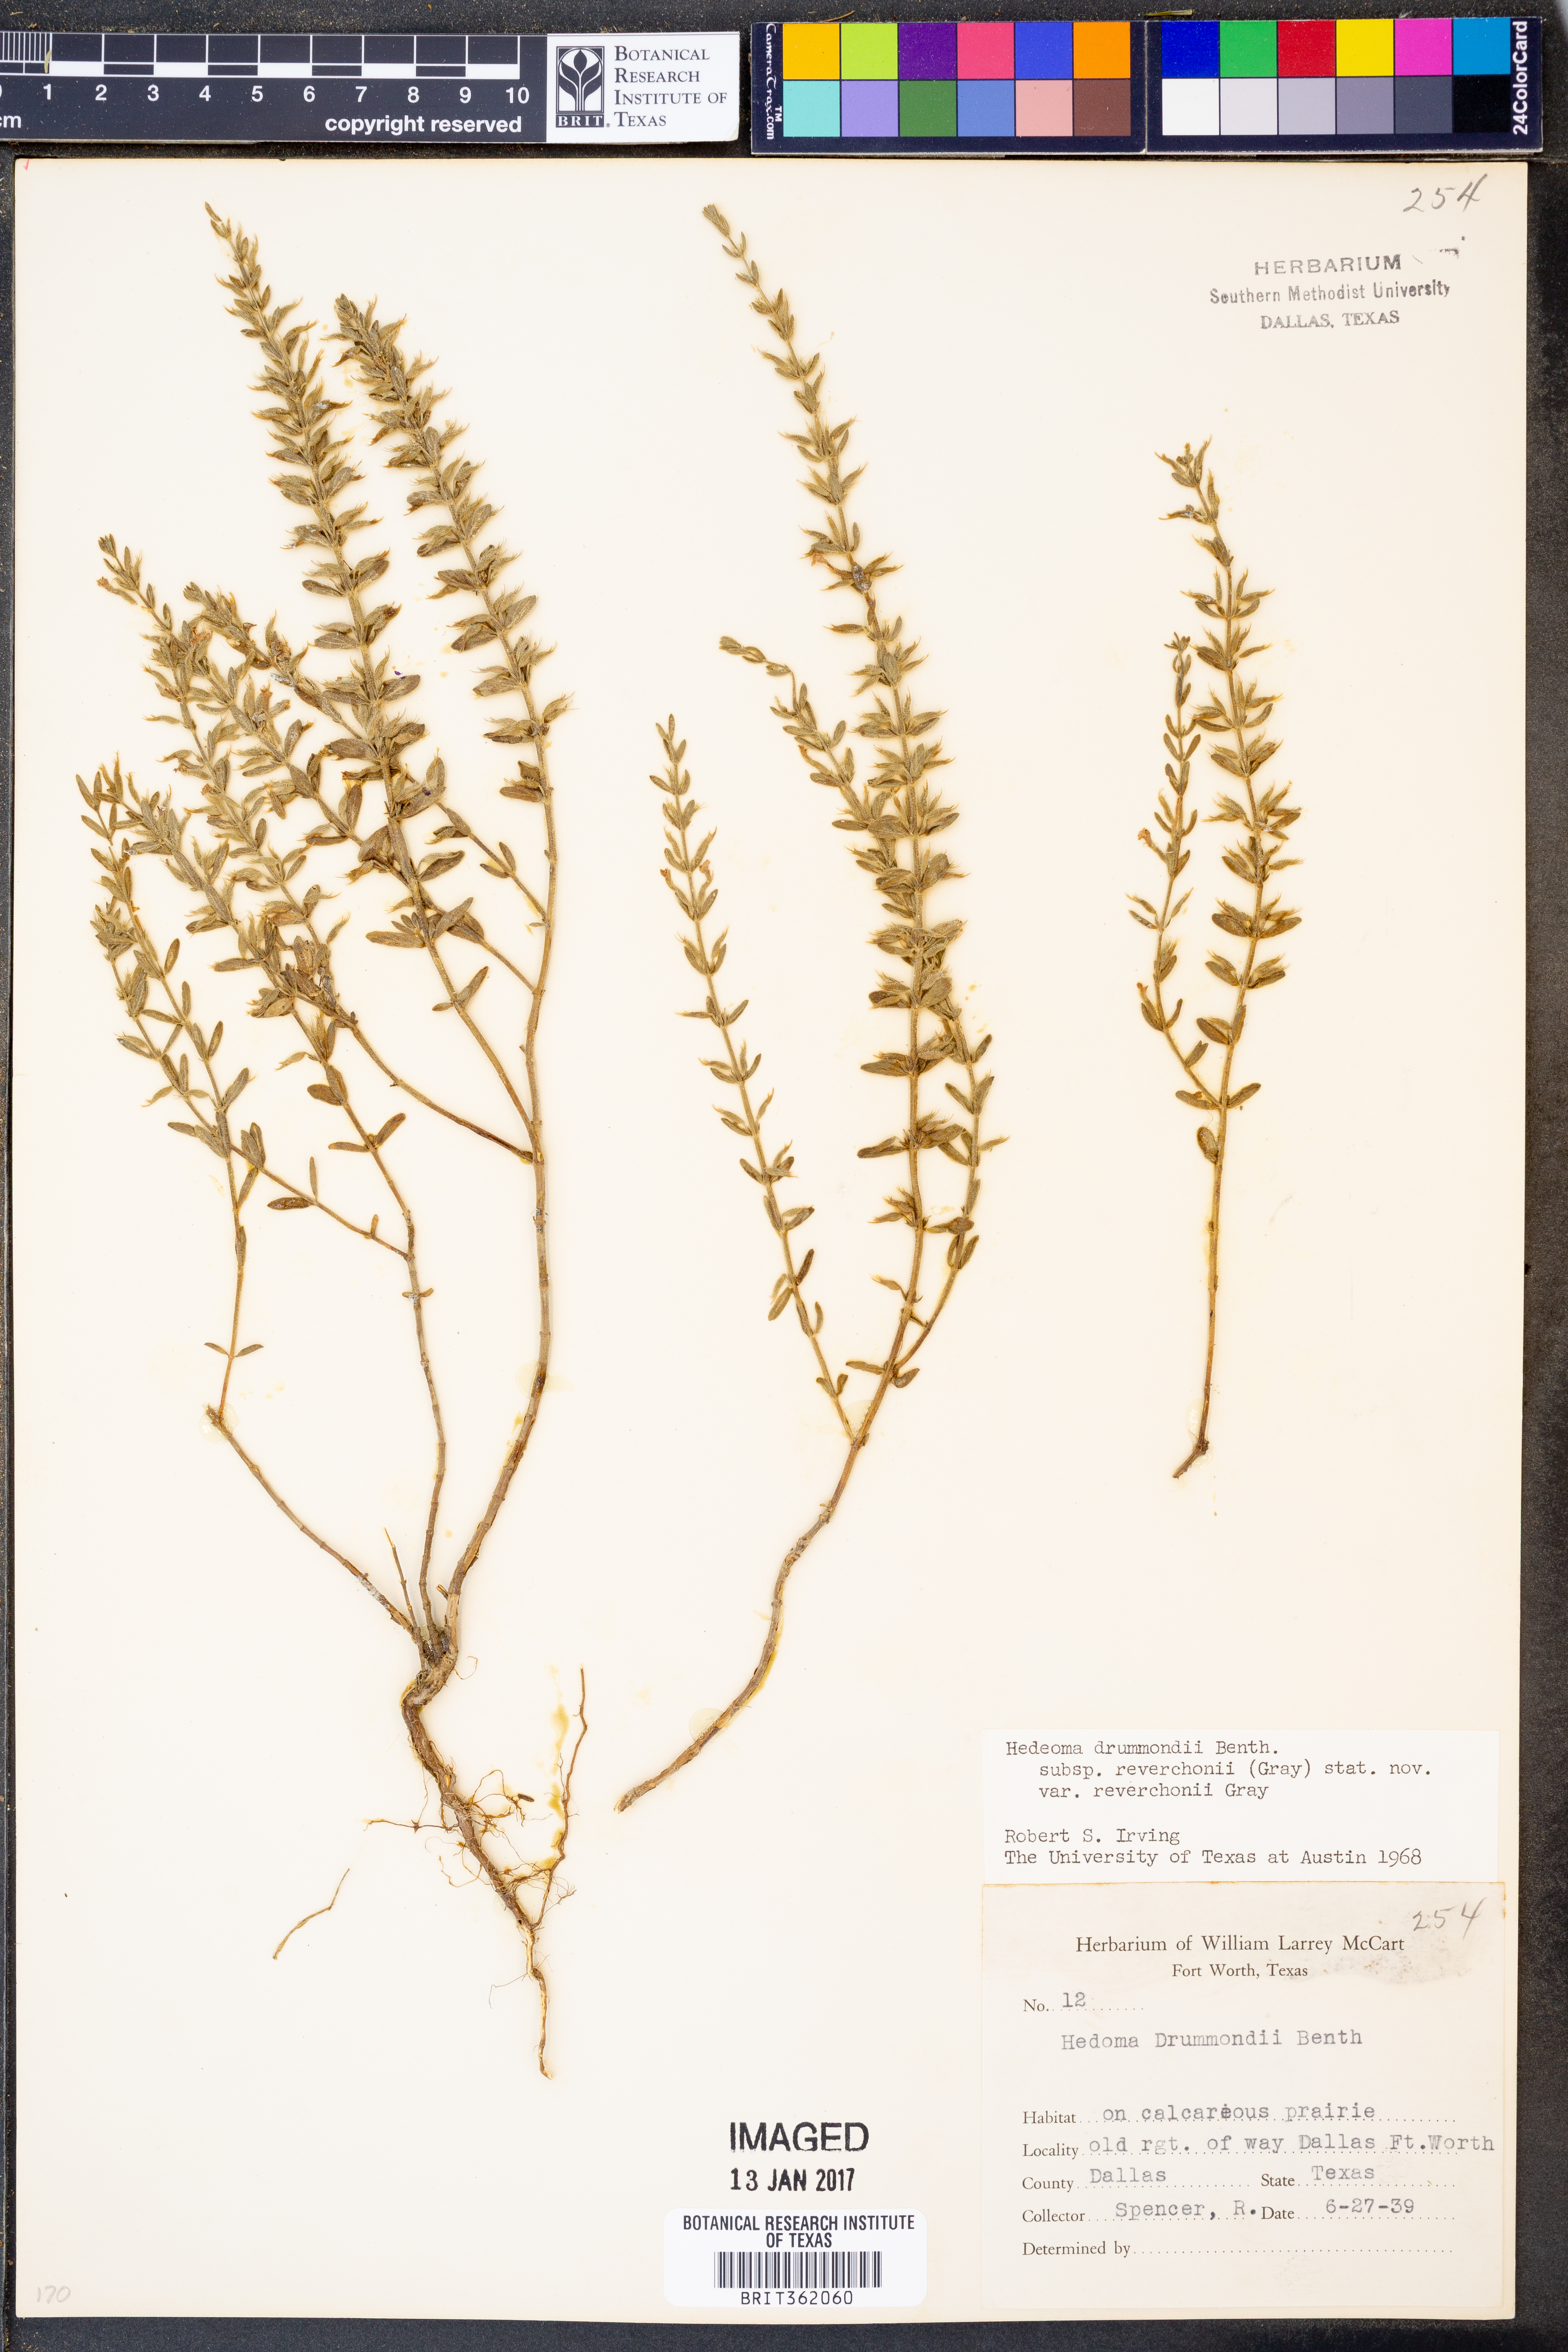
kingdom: Plantae
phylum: Tracheophyta
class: Magnoliopsida
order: Lamiales
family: Lamiaceae
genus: Hedeoma
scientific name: Hedeoma reverchonii
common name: Reverchon's false penny-royal
